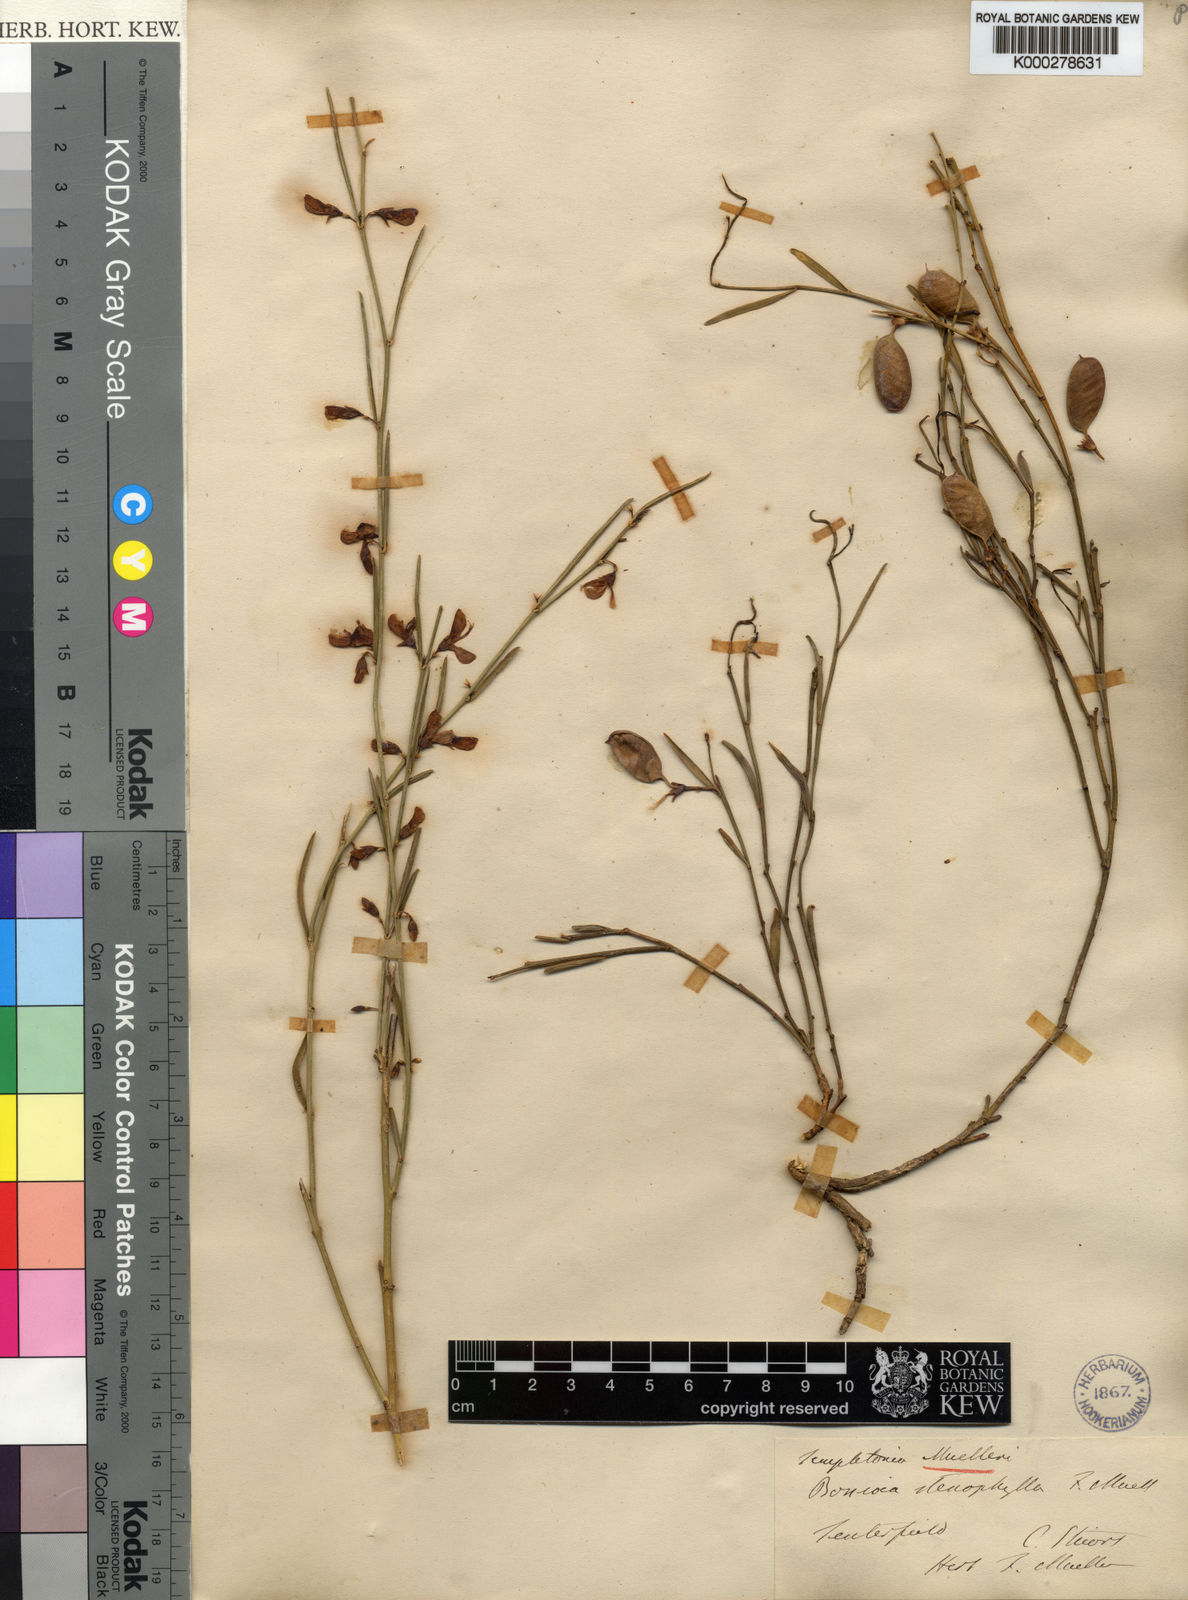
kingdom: Plantae
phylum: Tracheophyta
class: Magnoliopsida
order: Fabales
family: Fabaceae
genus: Templetonia
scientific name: Templetonia stenophylla
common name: Leafy templetonia
